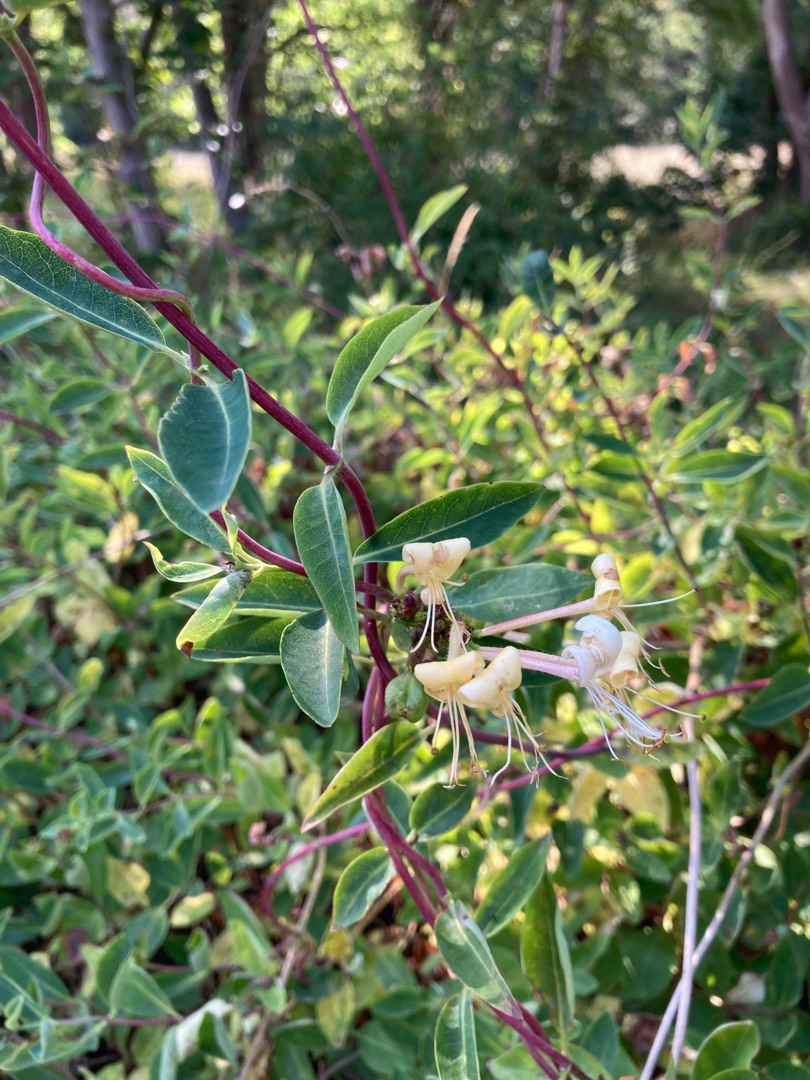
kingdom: Plantae
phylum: Tracheophyta
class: Magnoliopsida
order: Dipsacales
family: Caprifoliaceae
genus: Lonicera
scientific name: Lonicera periclymenum
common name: Almindelig gedeblad
